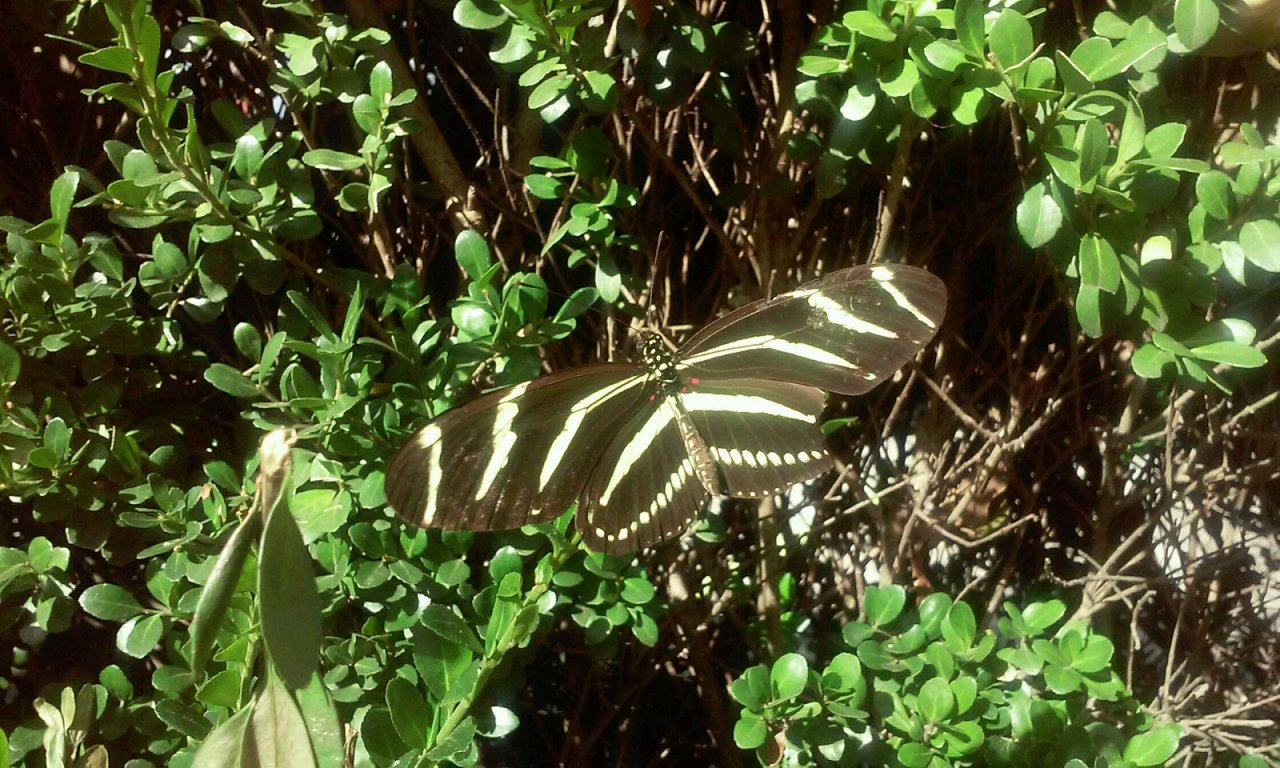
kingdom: Animalia
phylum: Arthropoda
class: Insecta
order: Lepidoptera
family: Nymphalidae
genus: Heliconius
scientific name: Heliconius charithonia
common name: Zebra Longwing
